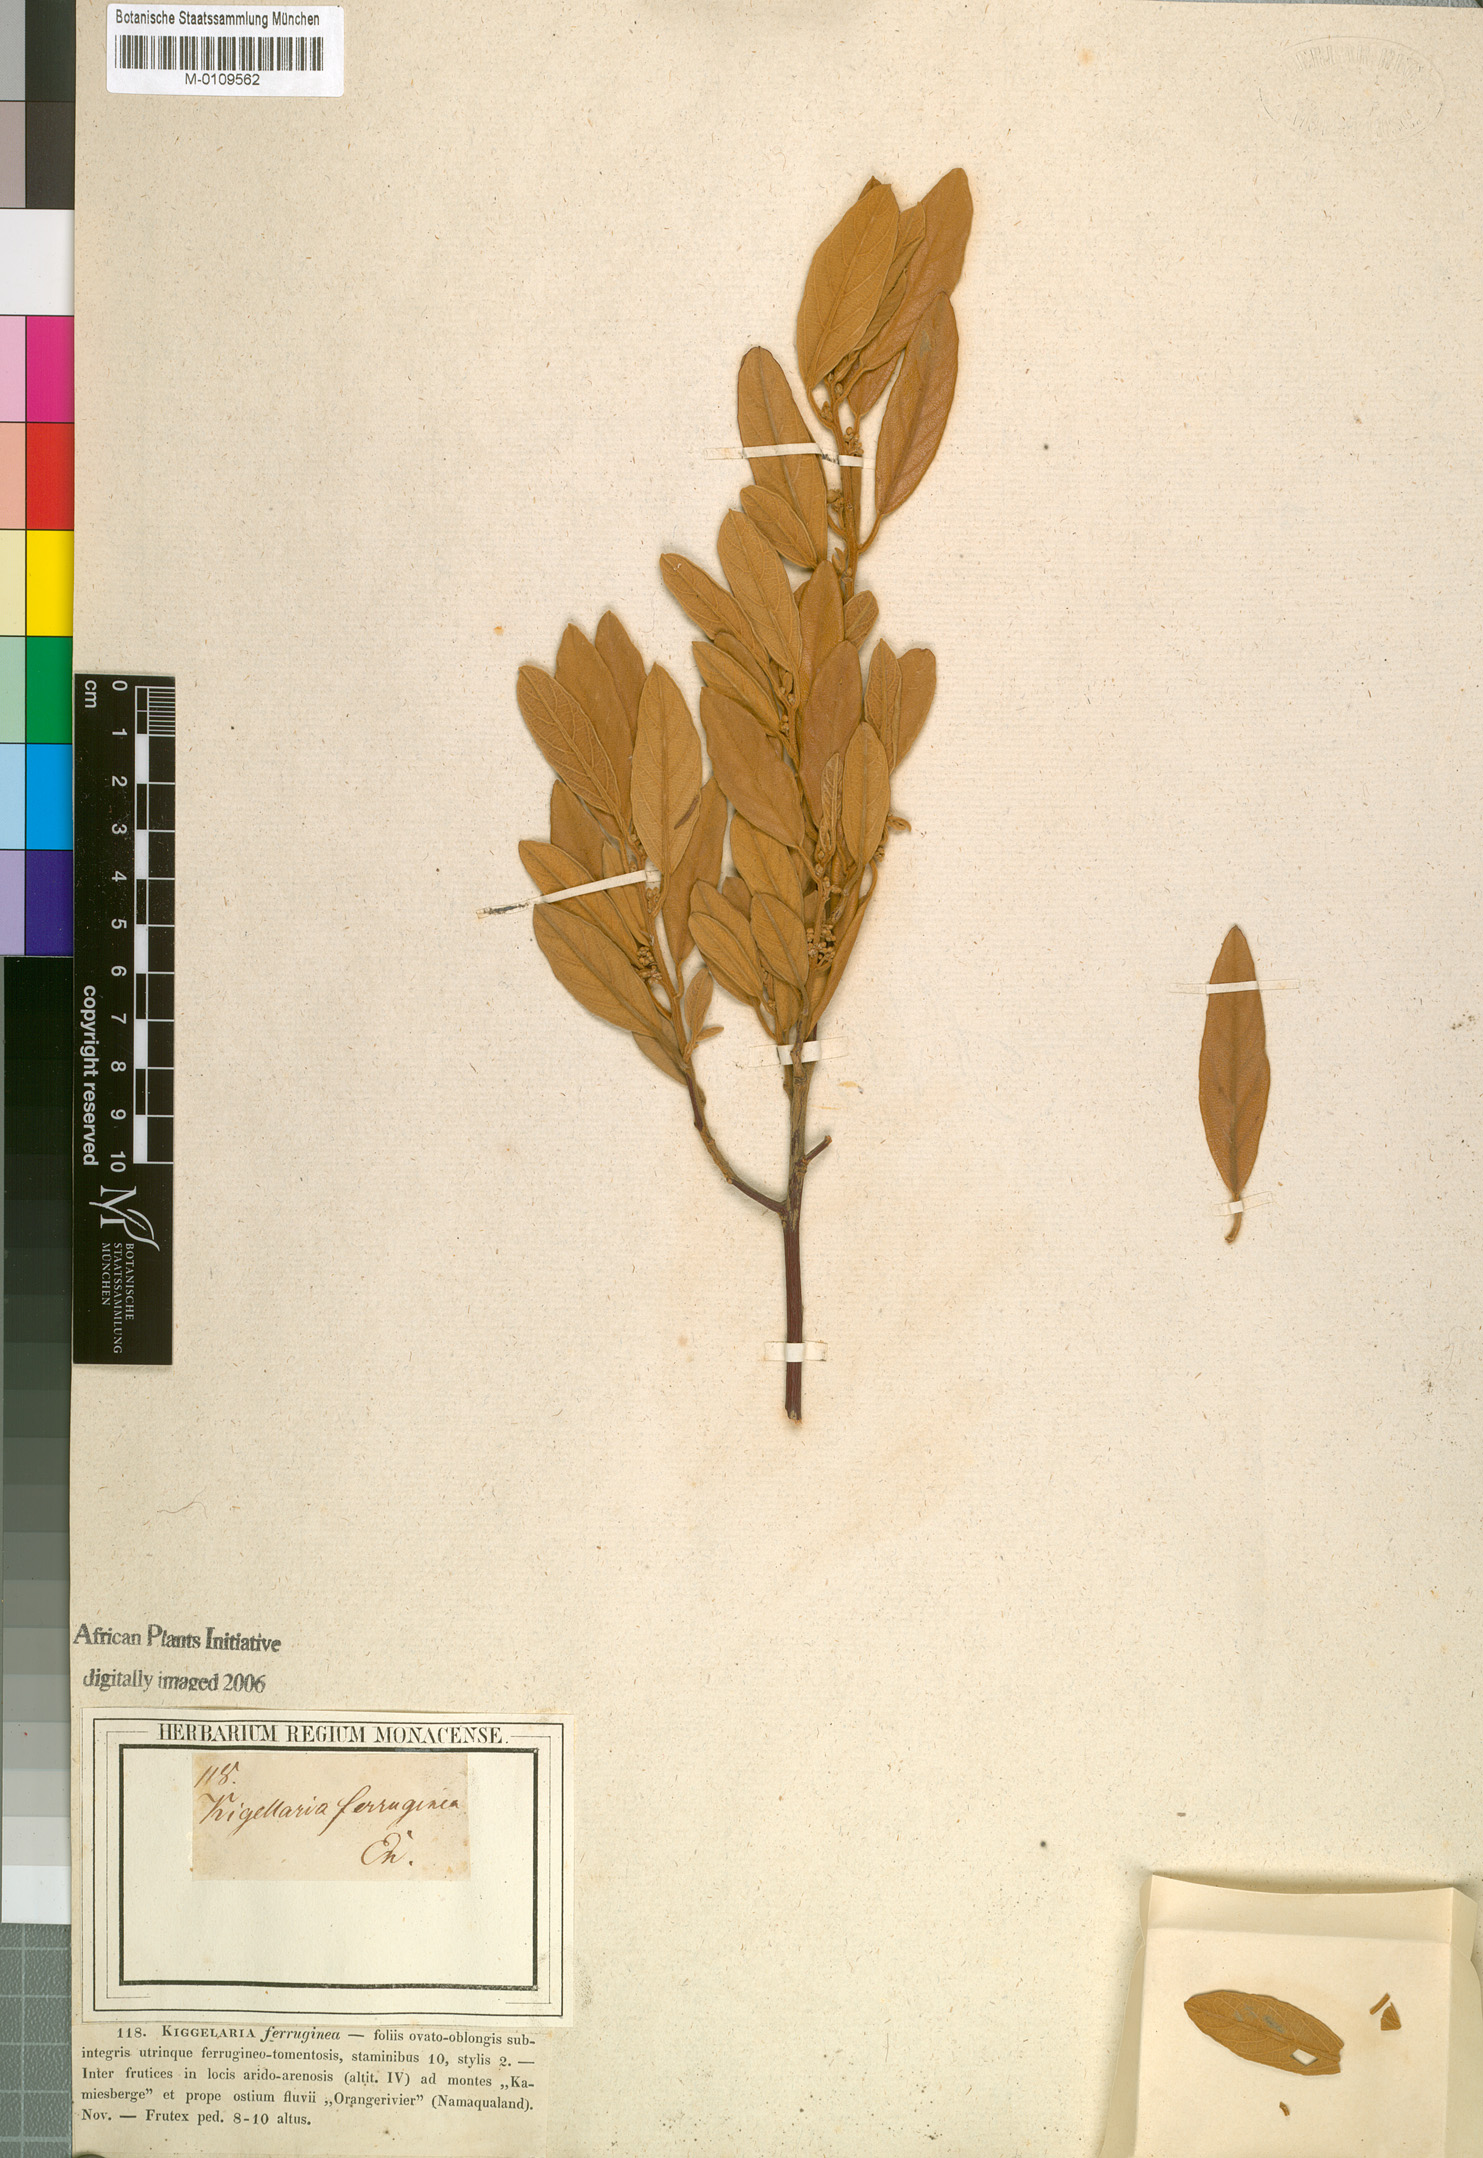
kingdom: Plantae
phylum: Tracheophyta
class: Magnoliopsida
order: Malpighiales
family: Achariaceae
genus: Kiggelaria
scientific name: Kiggelaria africana
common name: Wild peach
